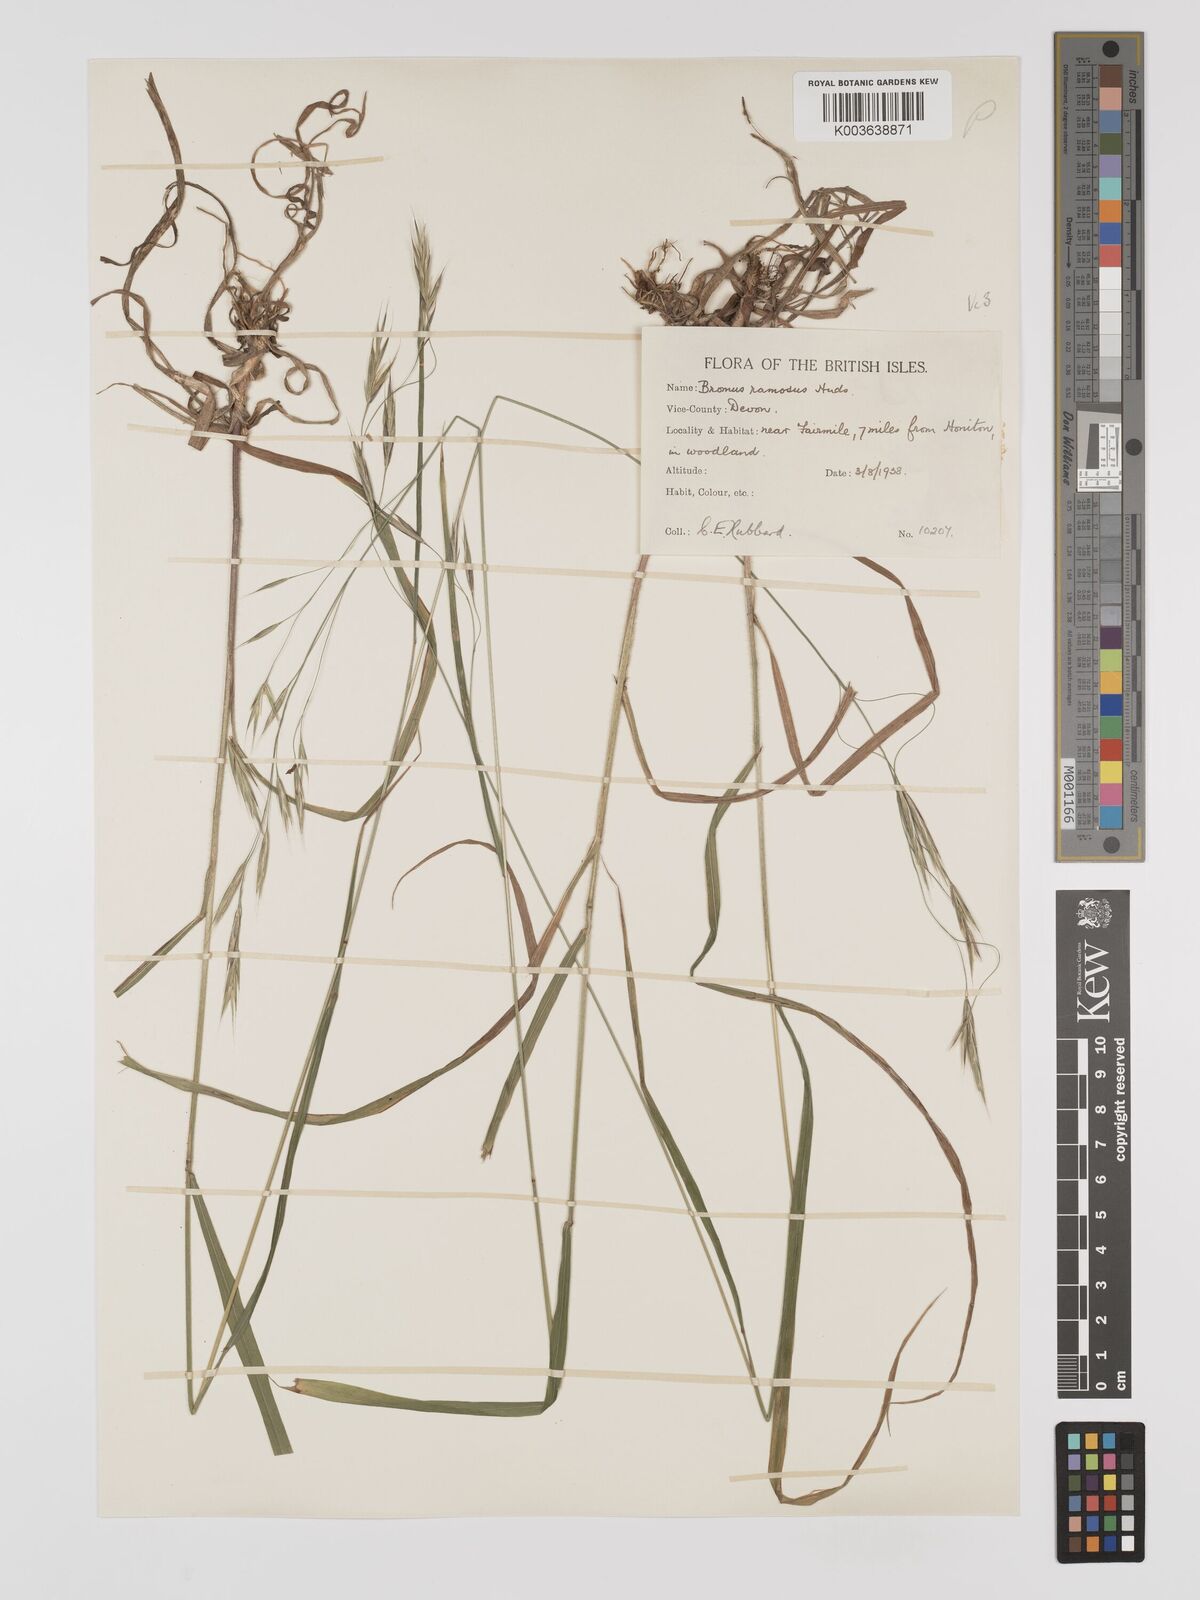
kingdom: Plantae
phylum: Tracheophyta
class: Liliopsida
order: Poales
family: Poaceae
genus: Brachypodium
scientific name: Brachypodium retusum
